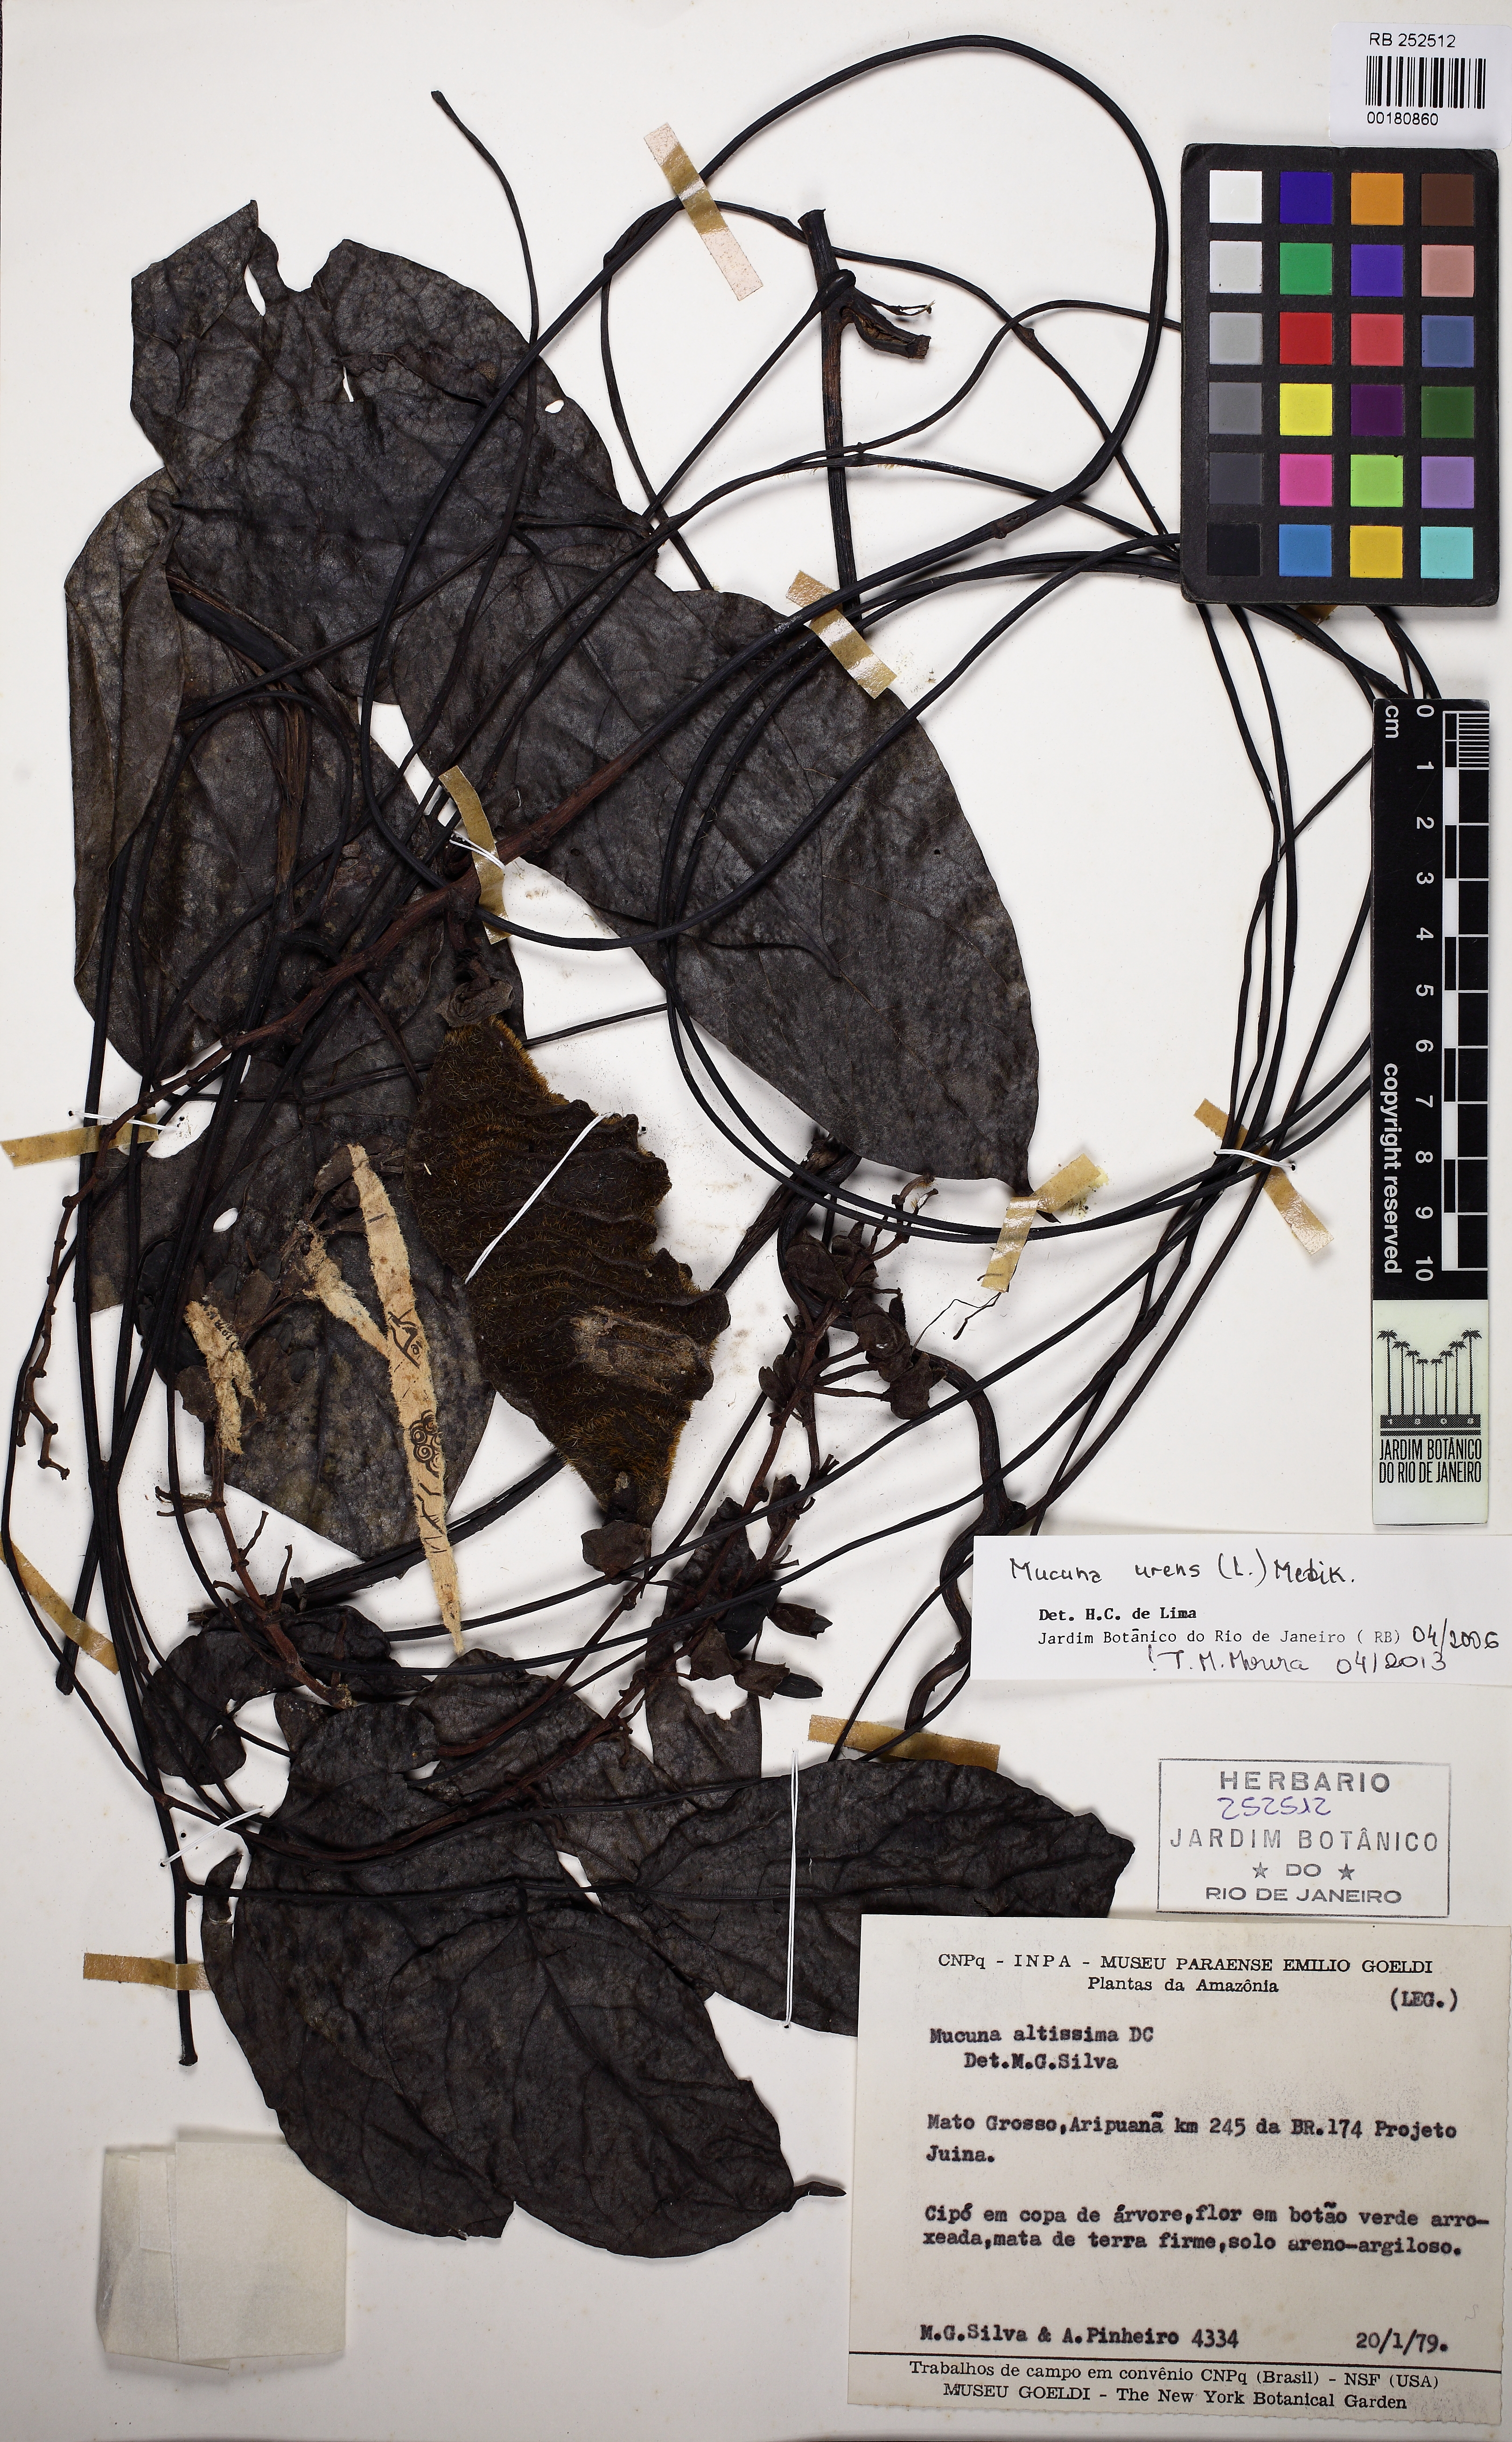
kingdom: Plantae
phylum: Tracheophyta
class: Magnoliopsida
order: Fabales
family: Fabaceae
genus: Mucuna
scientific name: Mucuna urens
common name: Red hamburger bean
